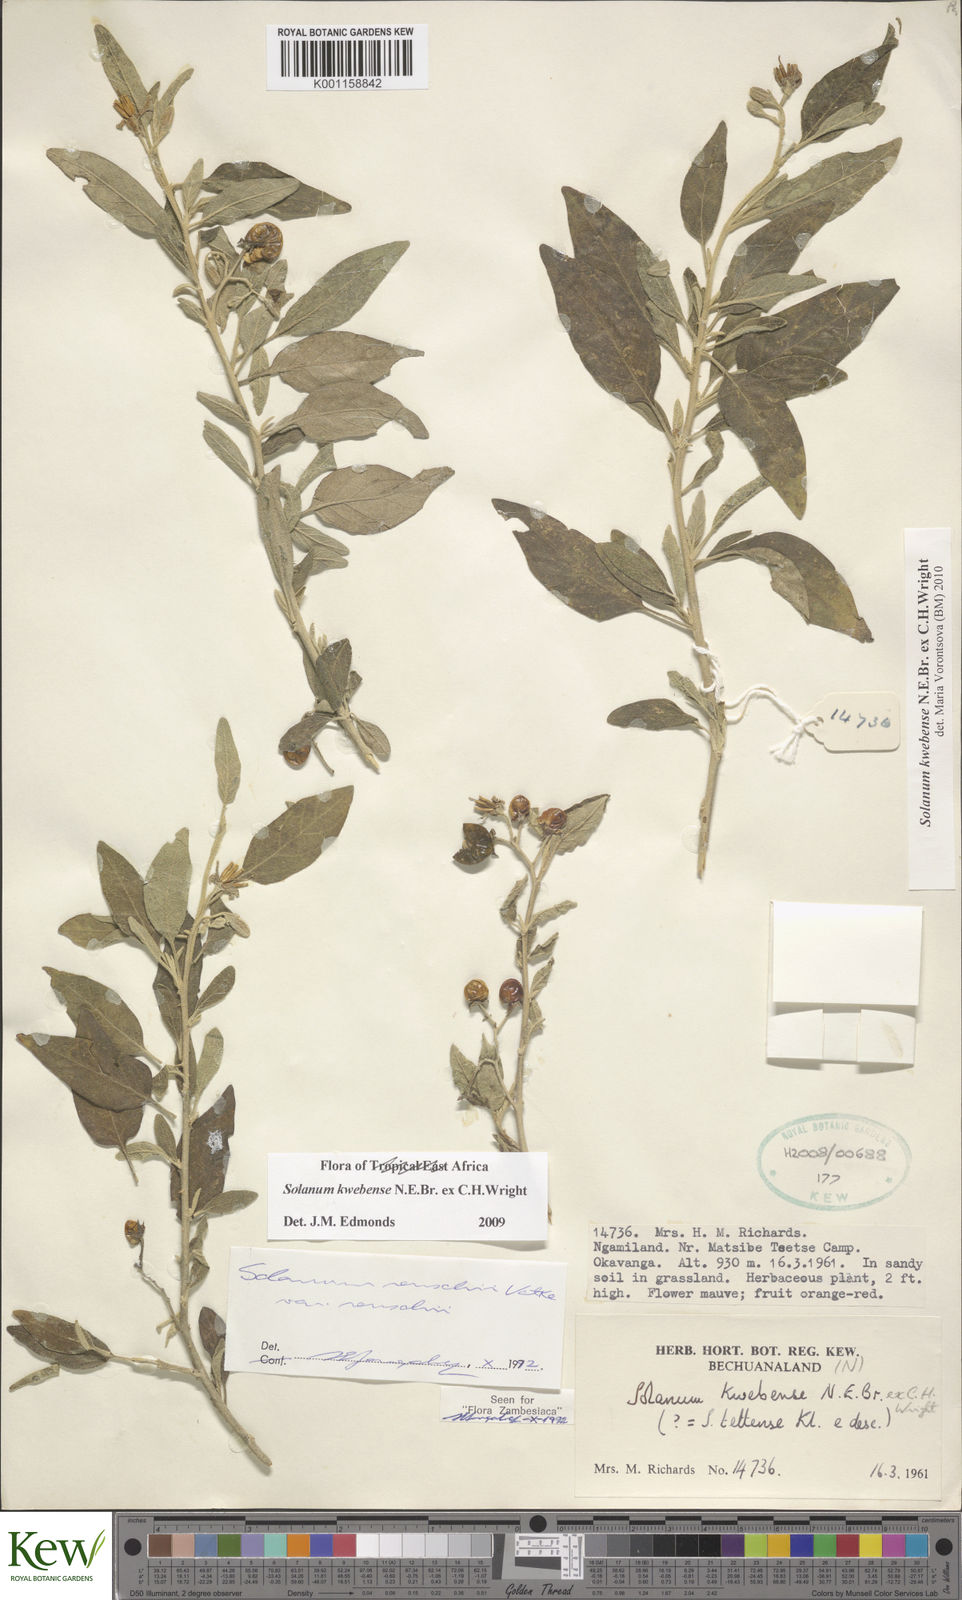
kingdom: Plantae
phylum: Tracheophyta
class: Magnoliopsida
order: Solanales
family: Solanaceae
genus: Solanum
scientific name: Solanum tettense
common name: Mozambique bitter apple
